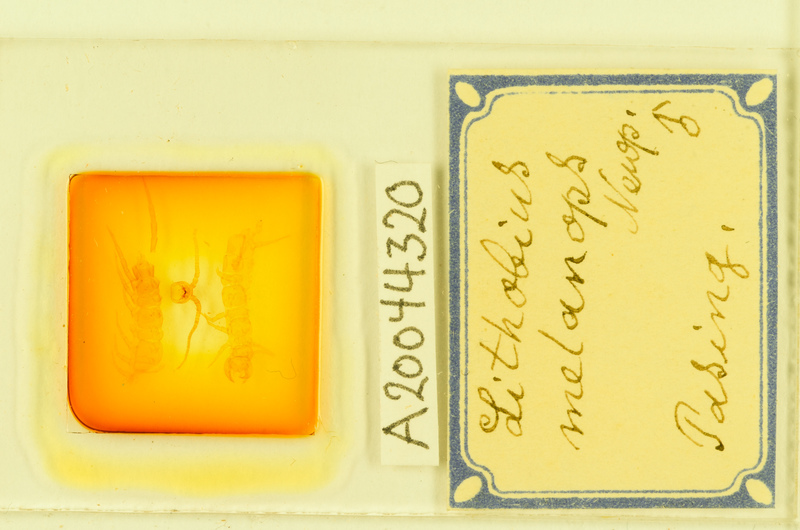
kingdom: Animalia
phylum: Arthropoda
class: Chilopoda
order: Lithobiomorpha
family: Lithobiidae
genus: Lithobius
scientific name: Lithobius melanops
